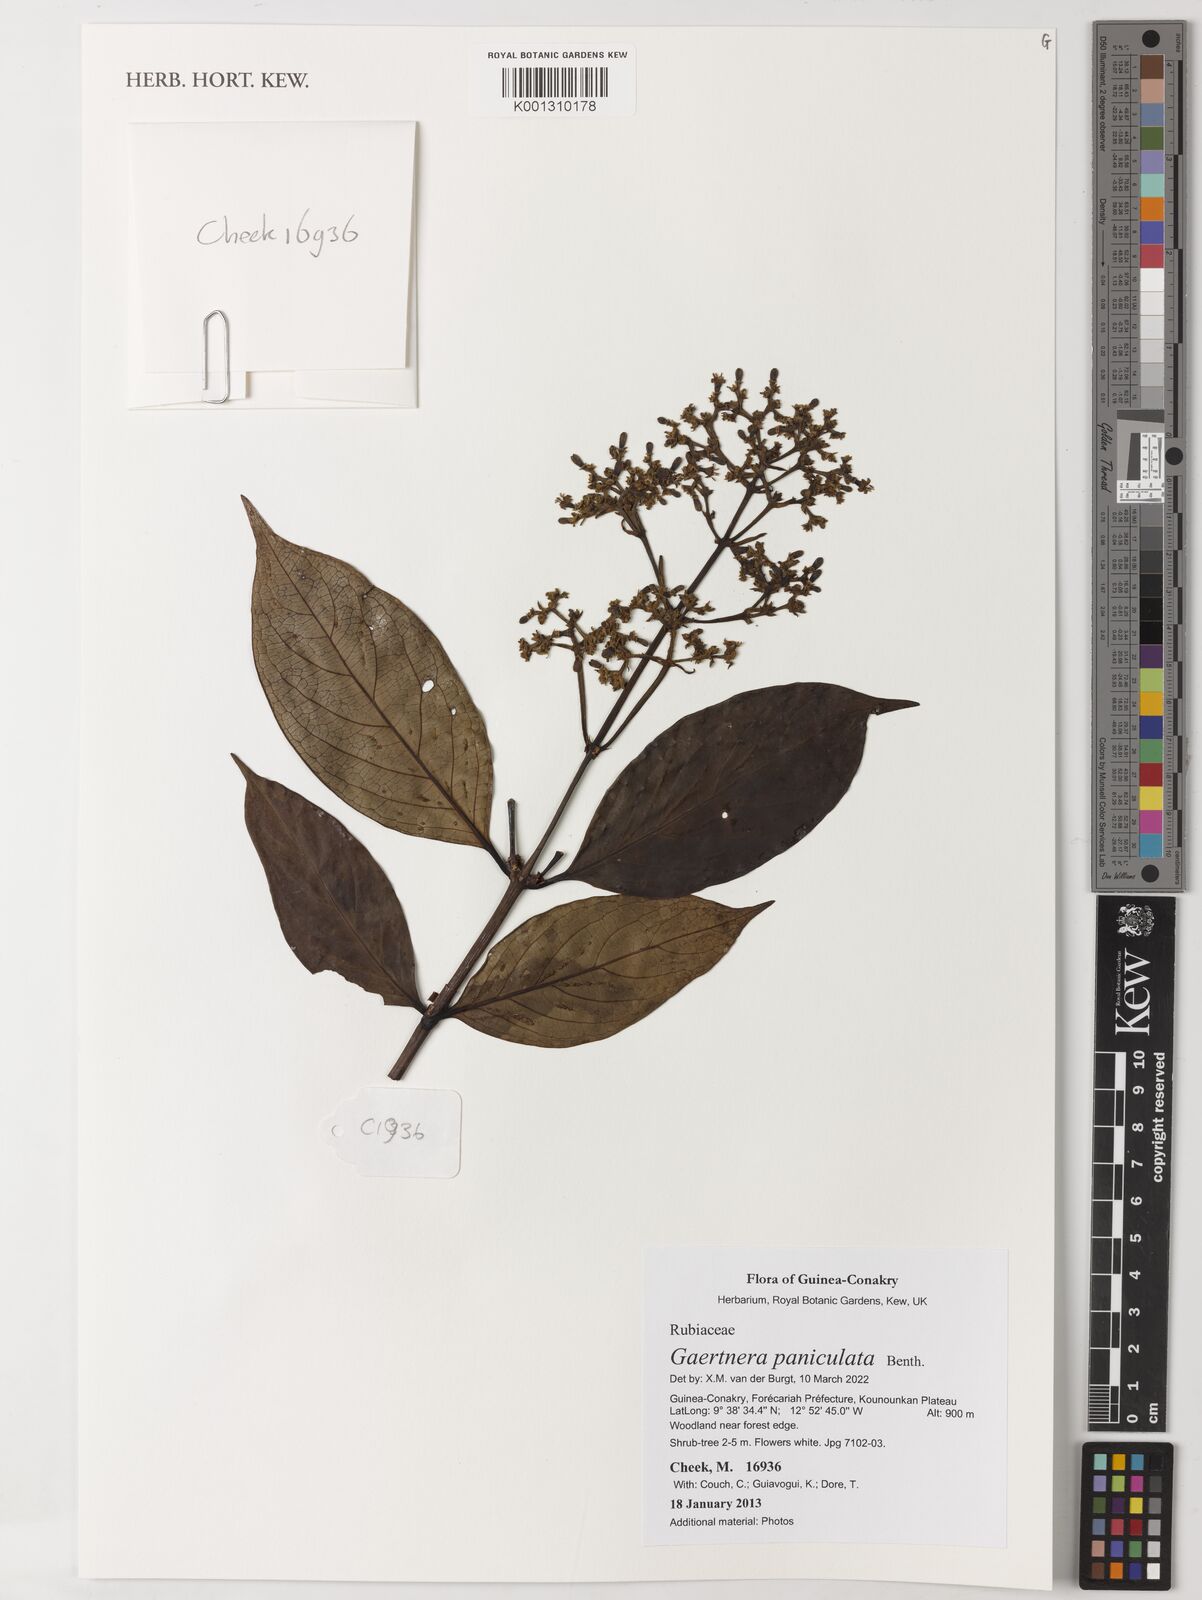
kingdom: Plantae
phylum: Tracheophyta
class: Magnoliopsida
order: Gentianales
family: Rubiaceae
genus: Gaertnera
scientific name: Gaertnera paniculata
